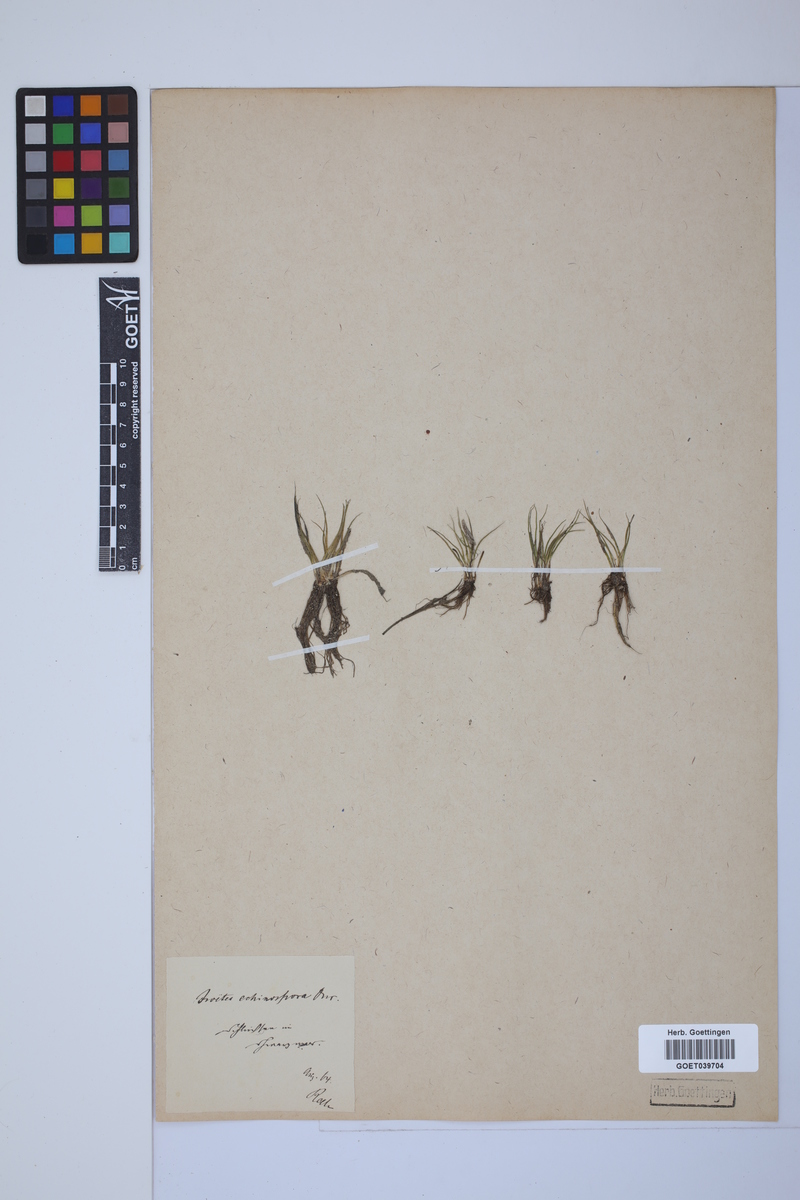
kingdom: Plantae
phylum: Tracheophyta
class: Lycopodiopsida
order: Isoetales
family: Isoetaceae
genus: Isoetes
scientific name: Isoetes echinospora
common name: Spring quillwort
